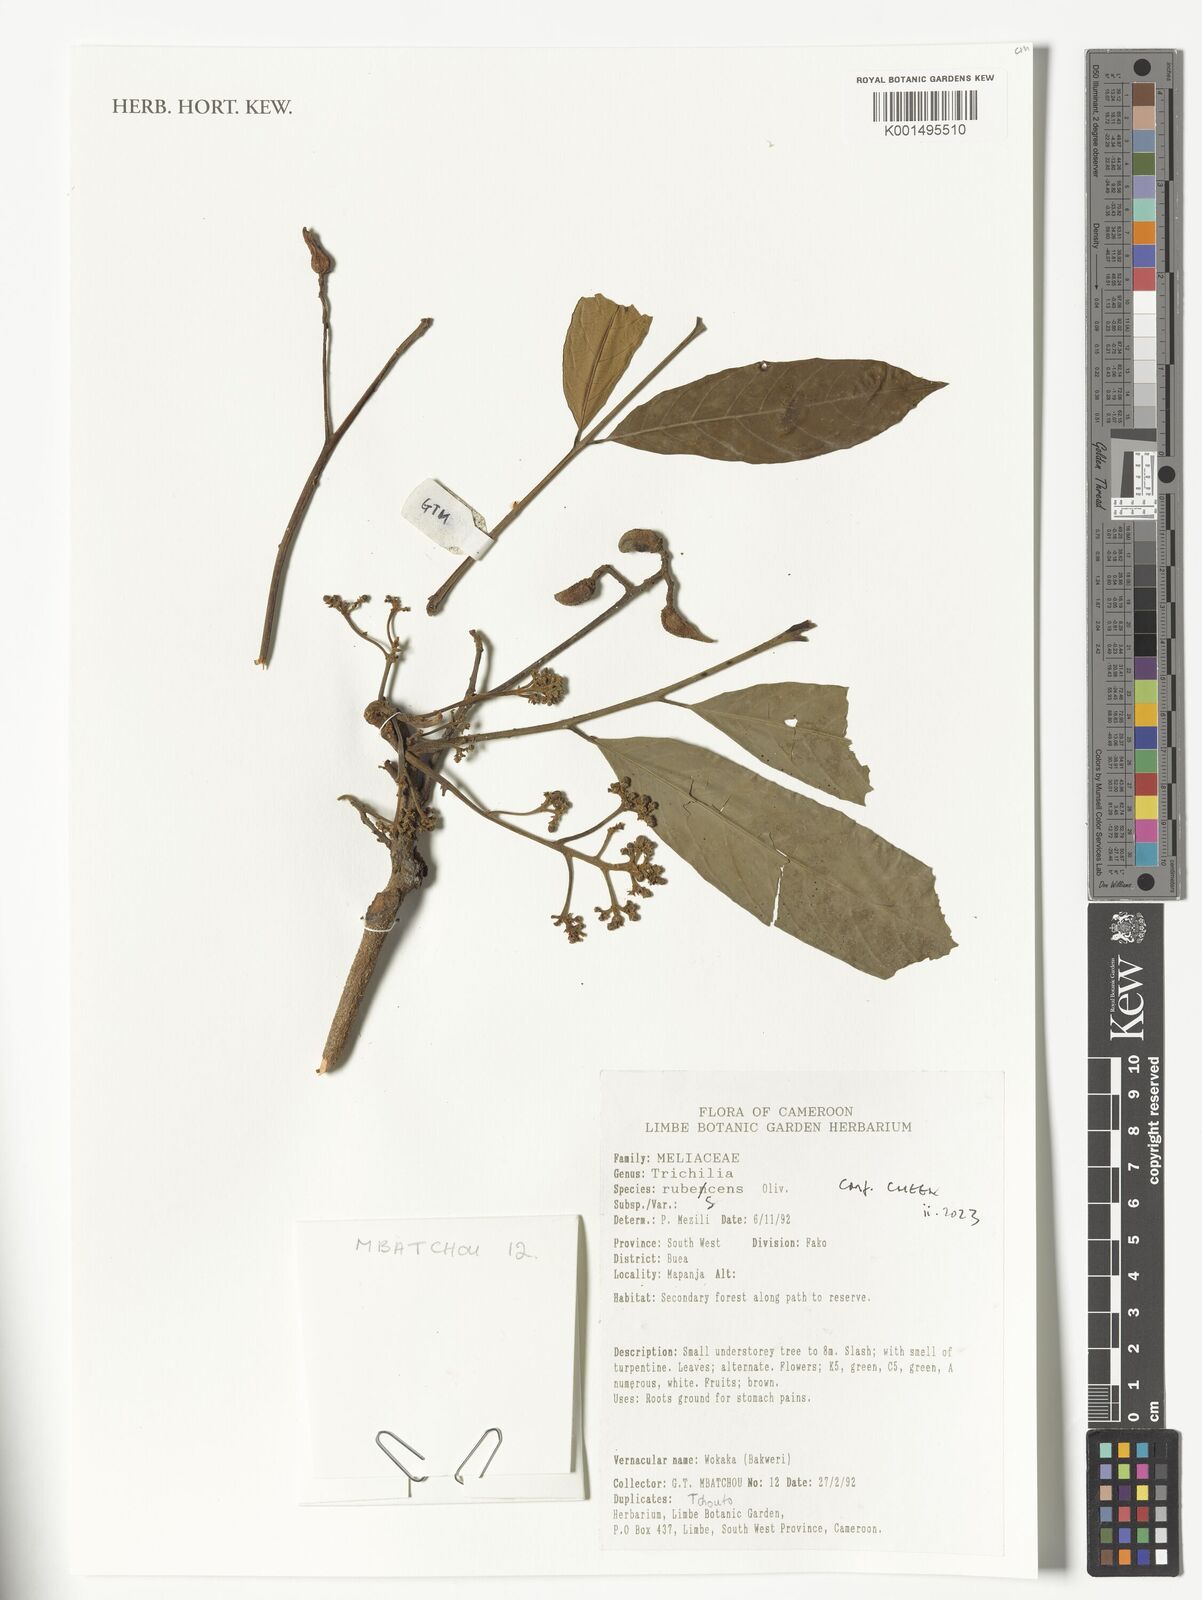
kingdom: Plantae
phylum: Tracheophyta
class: Magnoliopsida
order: Sapindales
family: Meliaceae
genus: Trichilia
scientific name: Trichilia rubescens
